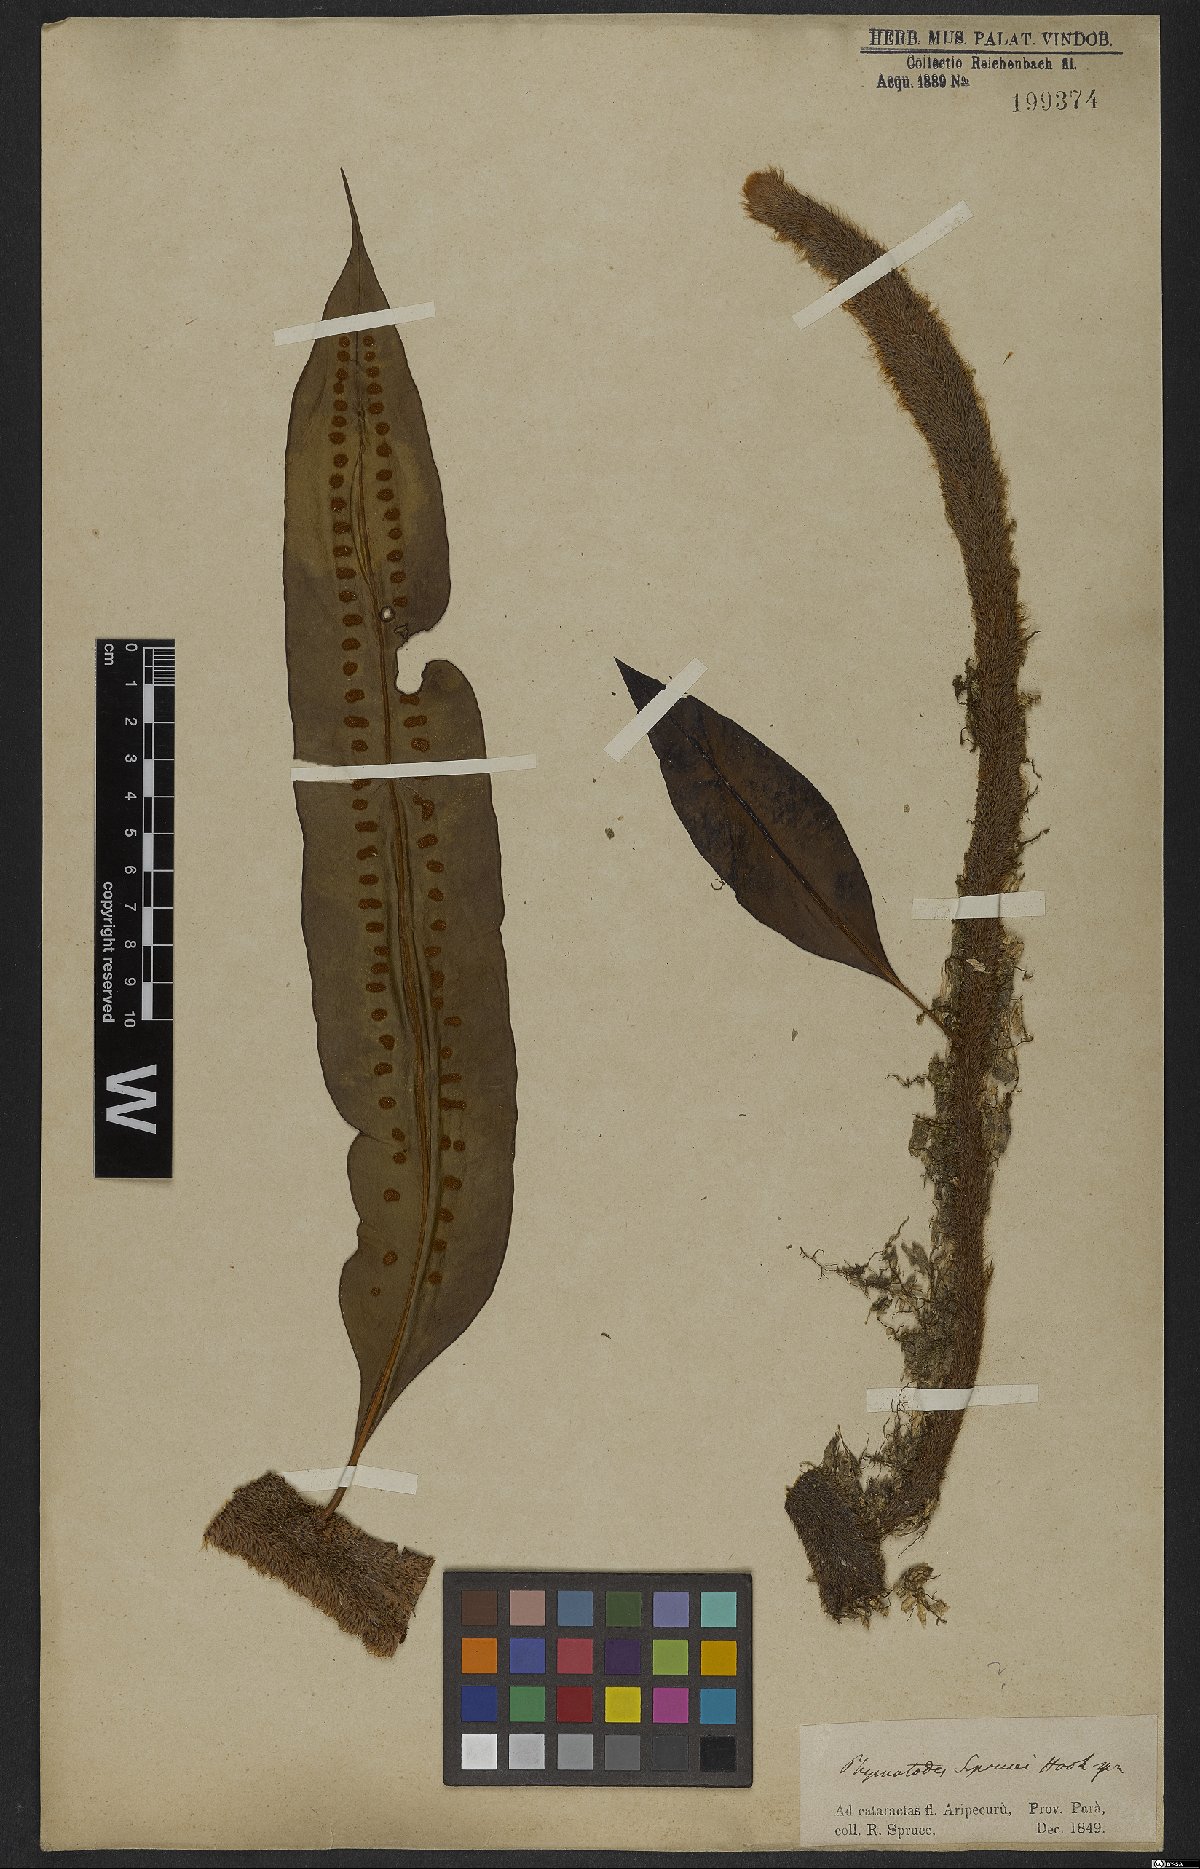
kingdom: Plantae
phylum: Tracheophyta
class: Polypodiopsida
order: Polypodiales
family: Polypodiaceae
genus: Parrisia
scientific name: Parrisia parietina
